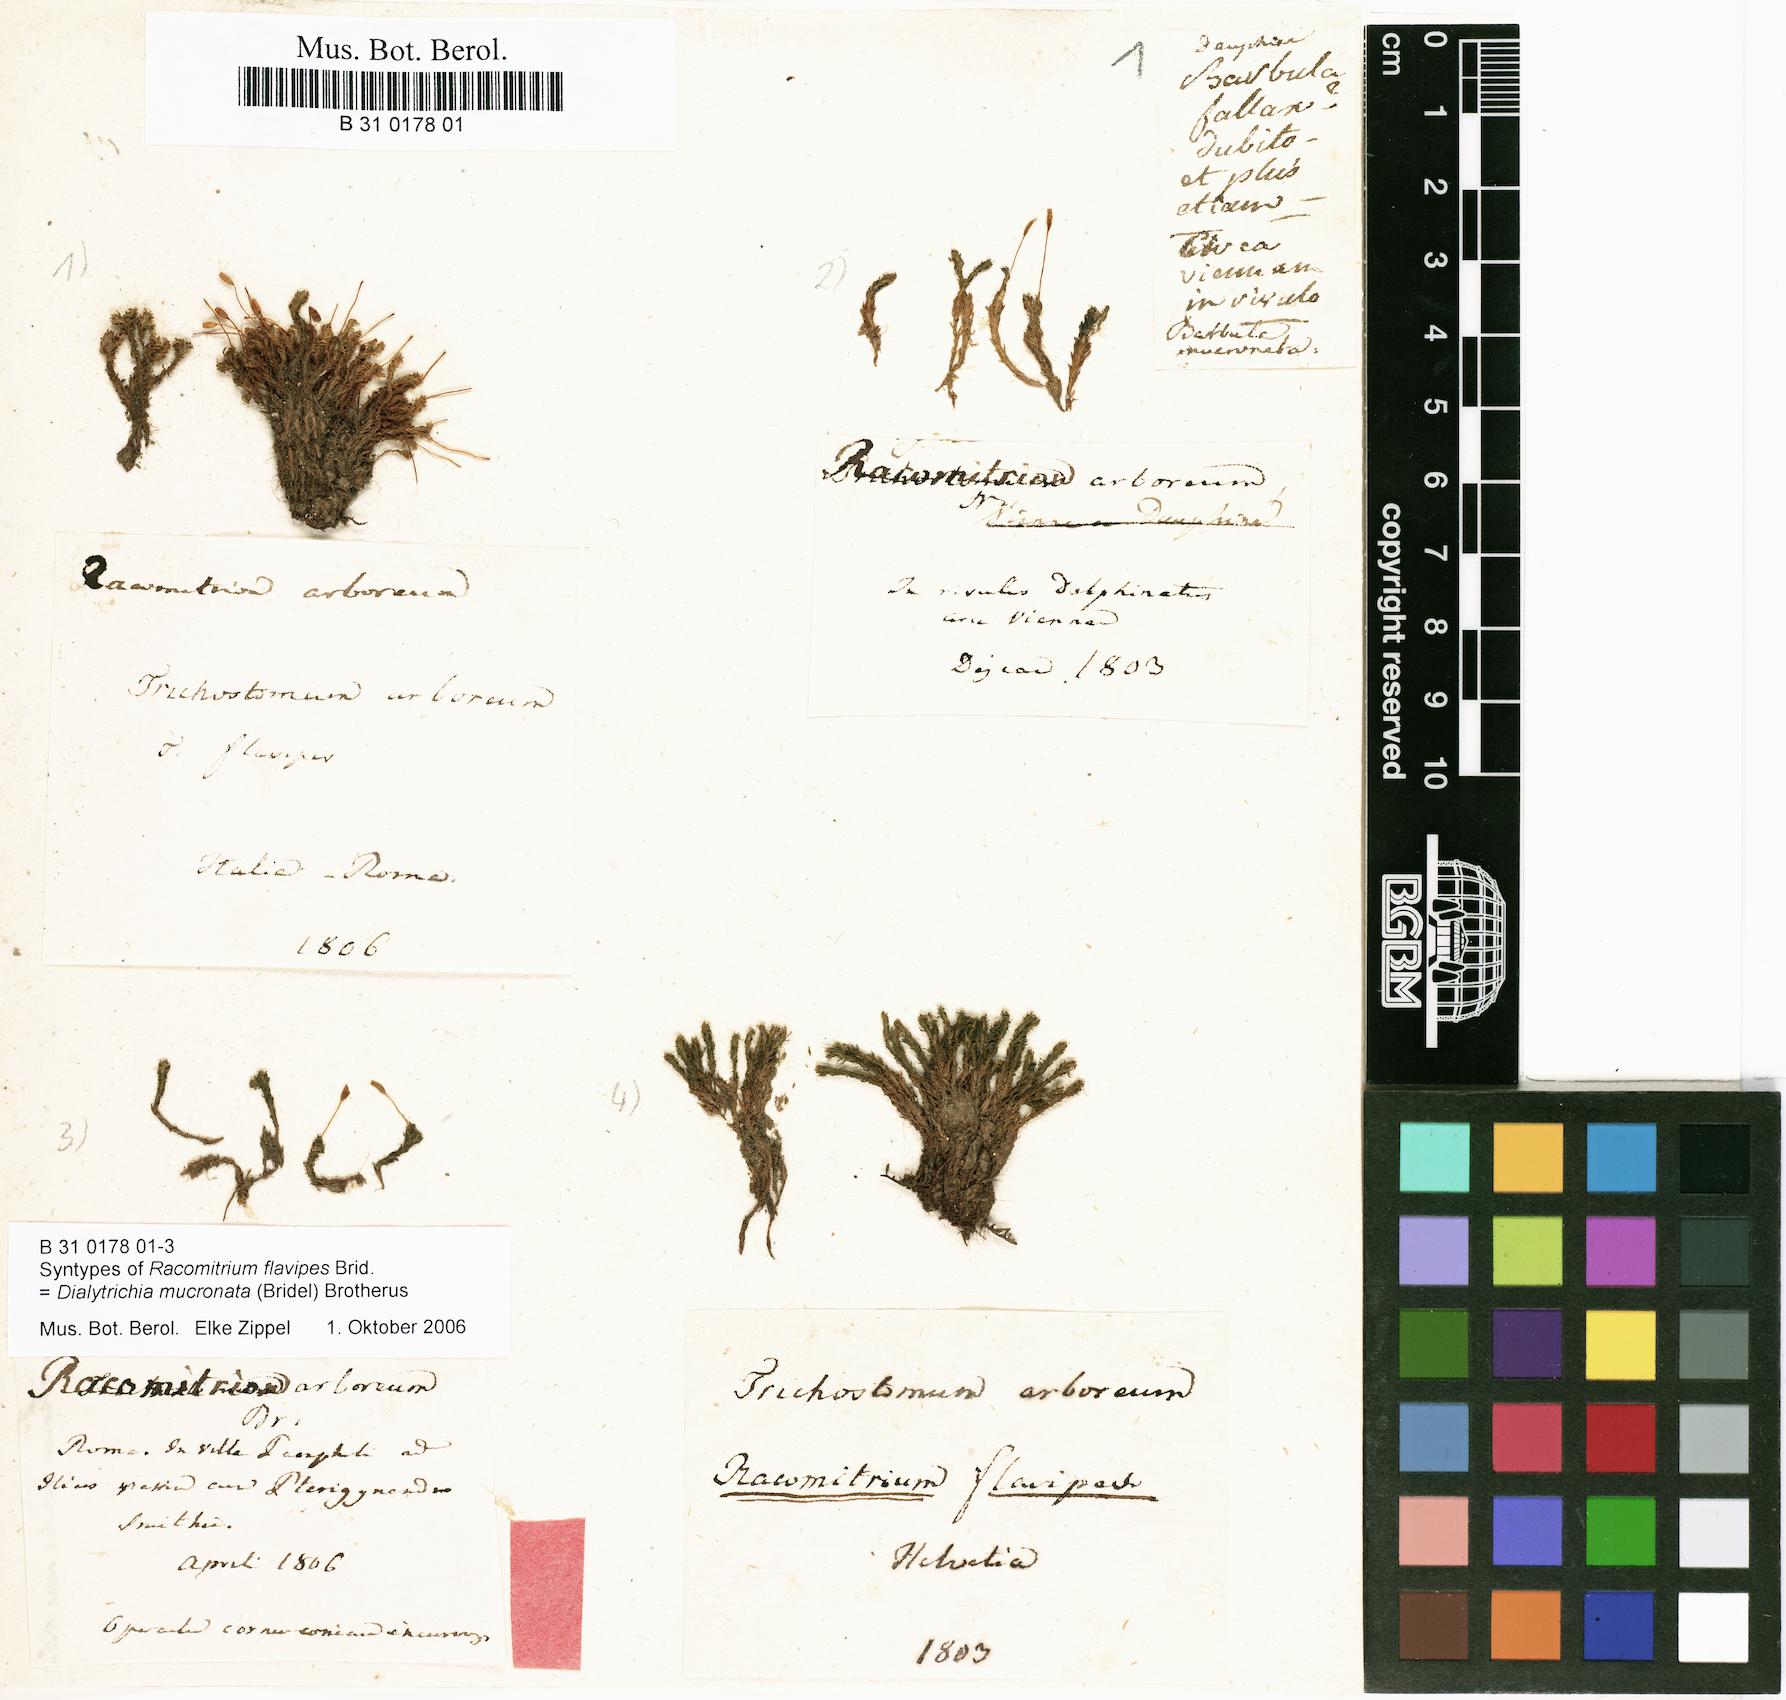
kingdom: Plantae
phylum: Bryophyta
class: Bryopsida
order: Grimmiales
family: Grimmiaceae
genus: Racomitrium
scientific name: Racomitrium
